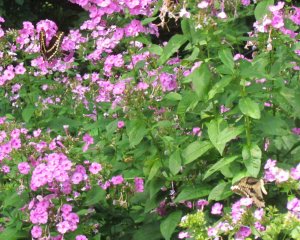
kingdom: Animalia
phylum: Arthropoda
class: Insecta
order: Lepidoptera
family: Papilionidae
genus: Papilio
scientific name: Papilio cresphontes
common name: Eastern Giant Swallowtail
